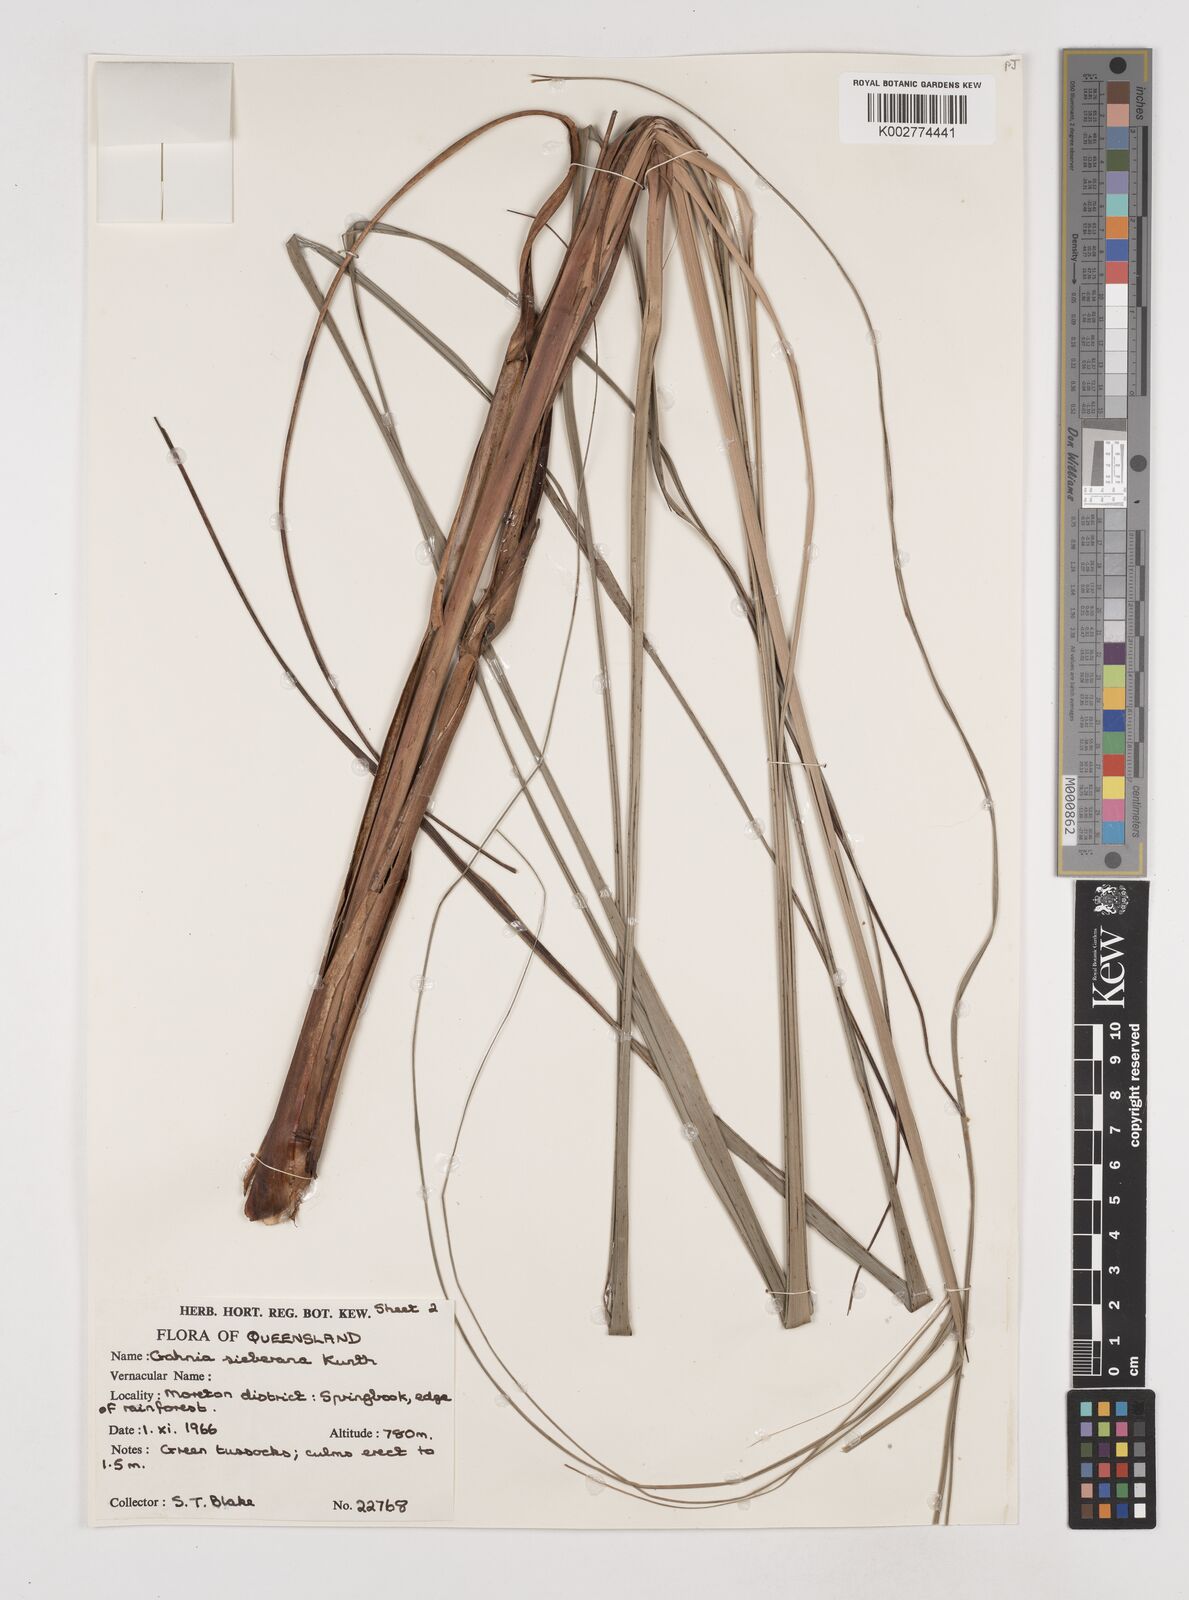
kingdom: Plantae
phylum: Tracheophyta
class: Liliopsida
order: Poales
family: Cyperaceae
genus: Gahnia
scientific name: Gahnia sieberiana
